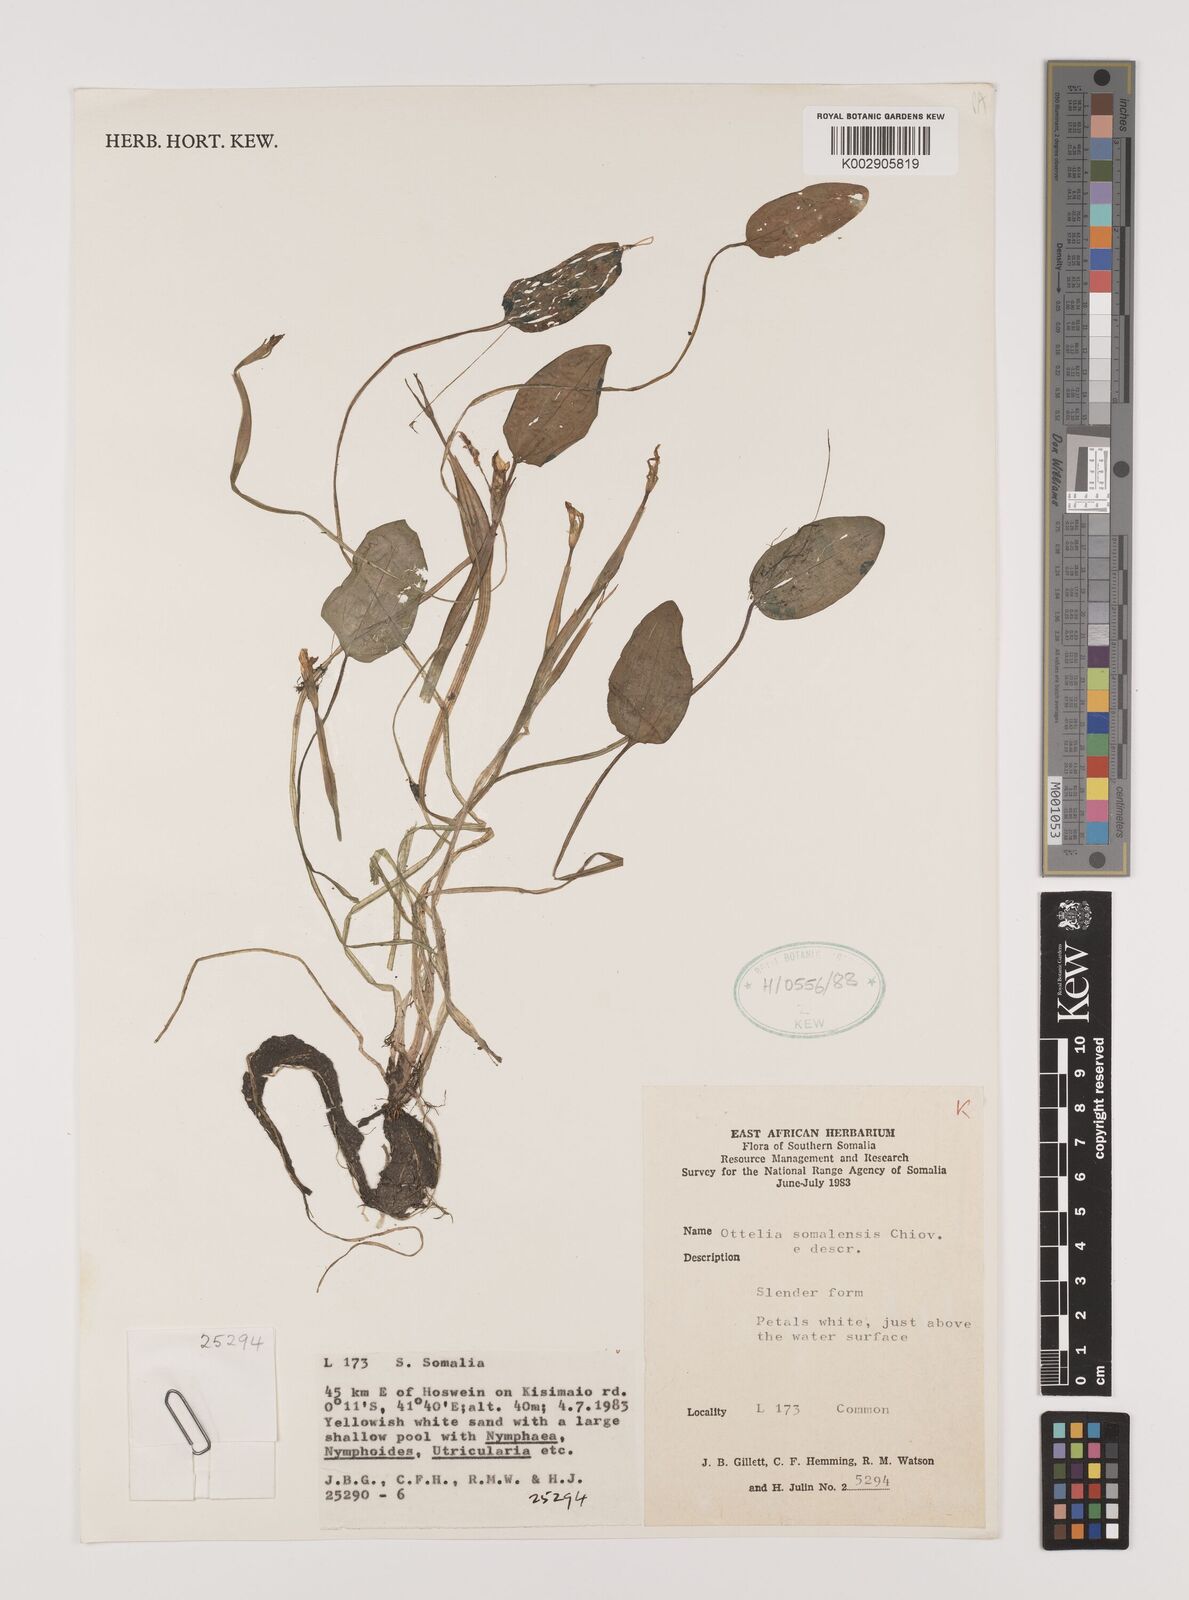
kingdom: Plantae
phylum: Tracheophyta
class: Liliopsida
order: Alismatales
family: Hydrocharitaceae
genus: Ottelia
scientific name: Ottelia exserta
